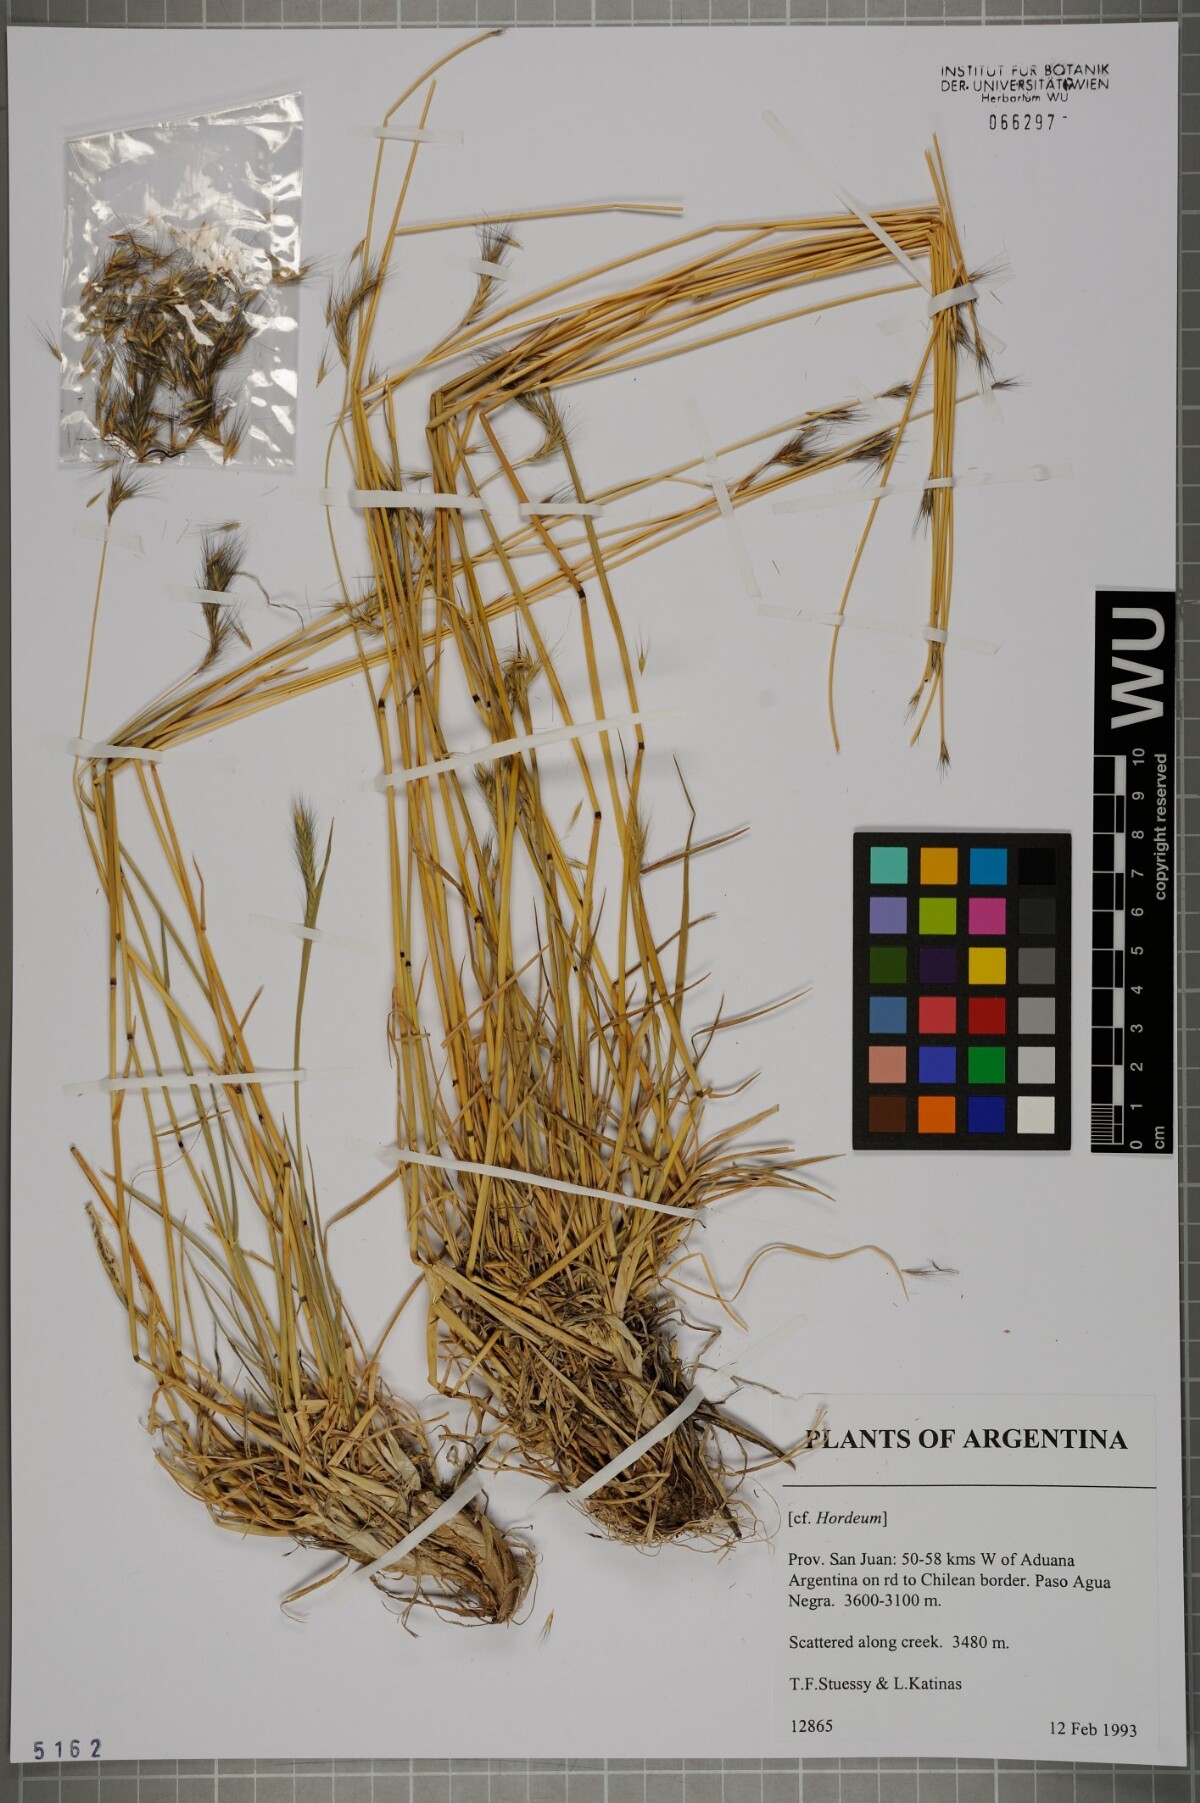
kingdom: Plantae
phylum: Tracheophyta
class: Liliopsida
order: Poales
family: Poaceae
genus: Hordeum
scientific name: Hordeum
